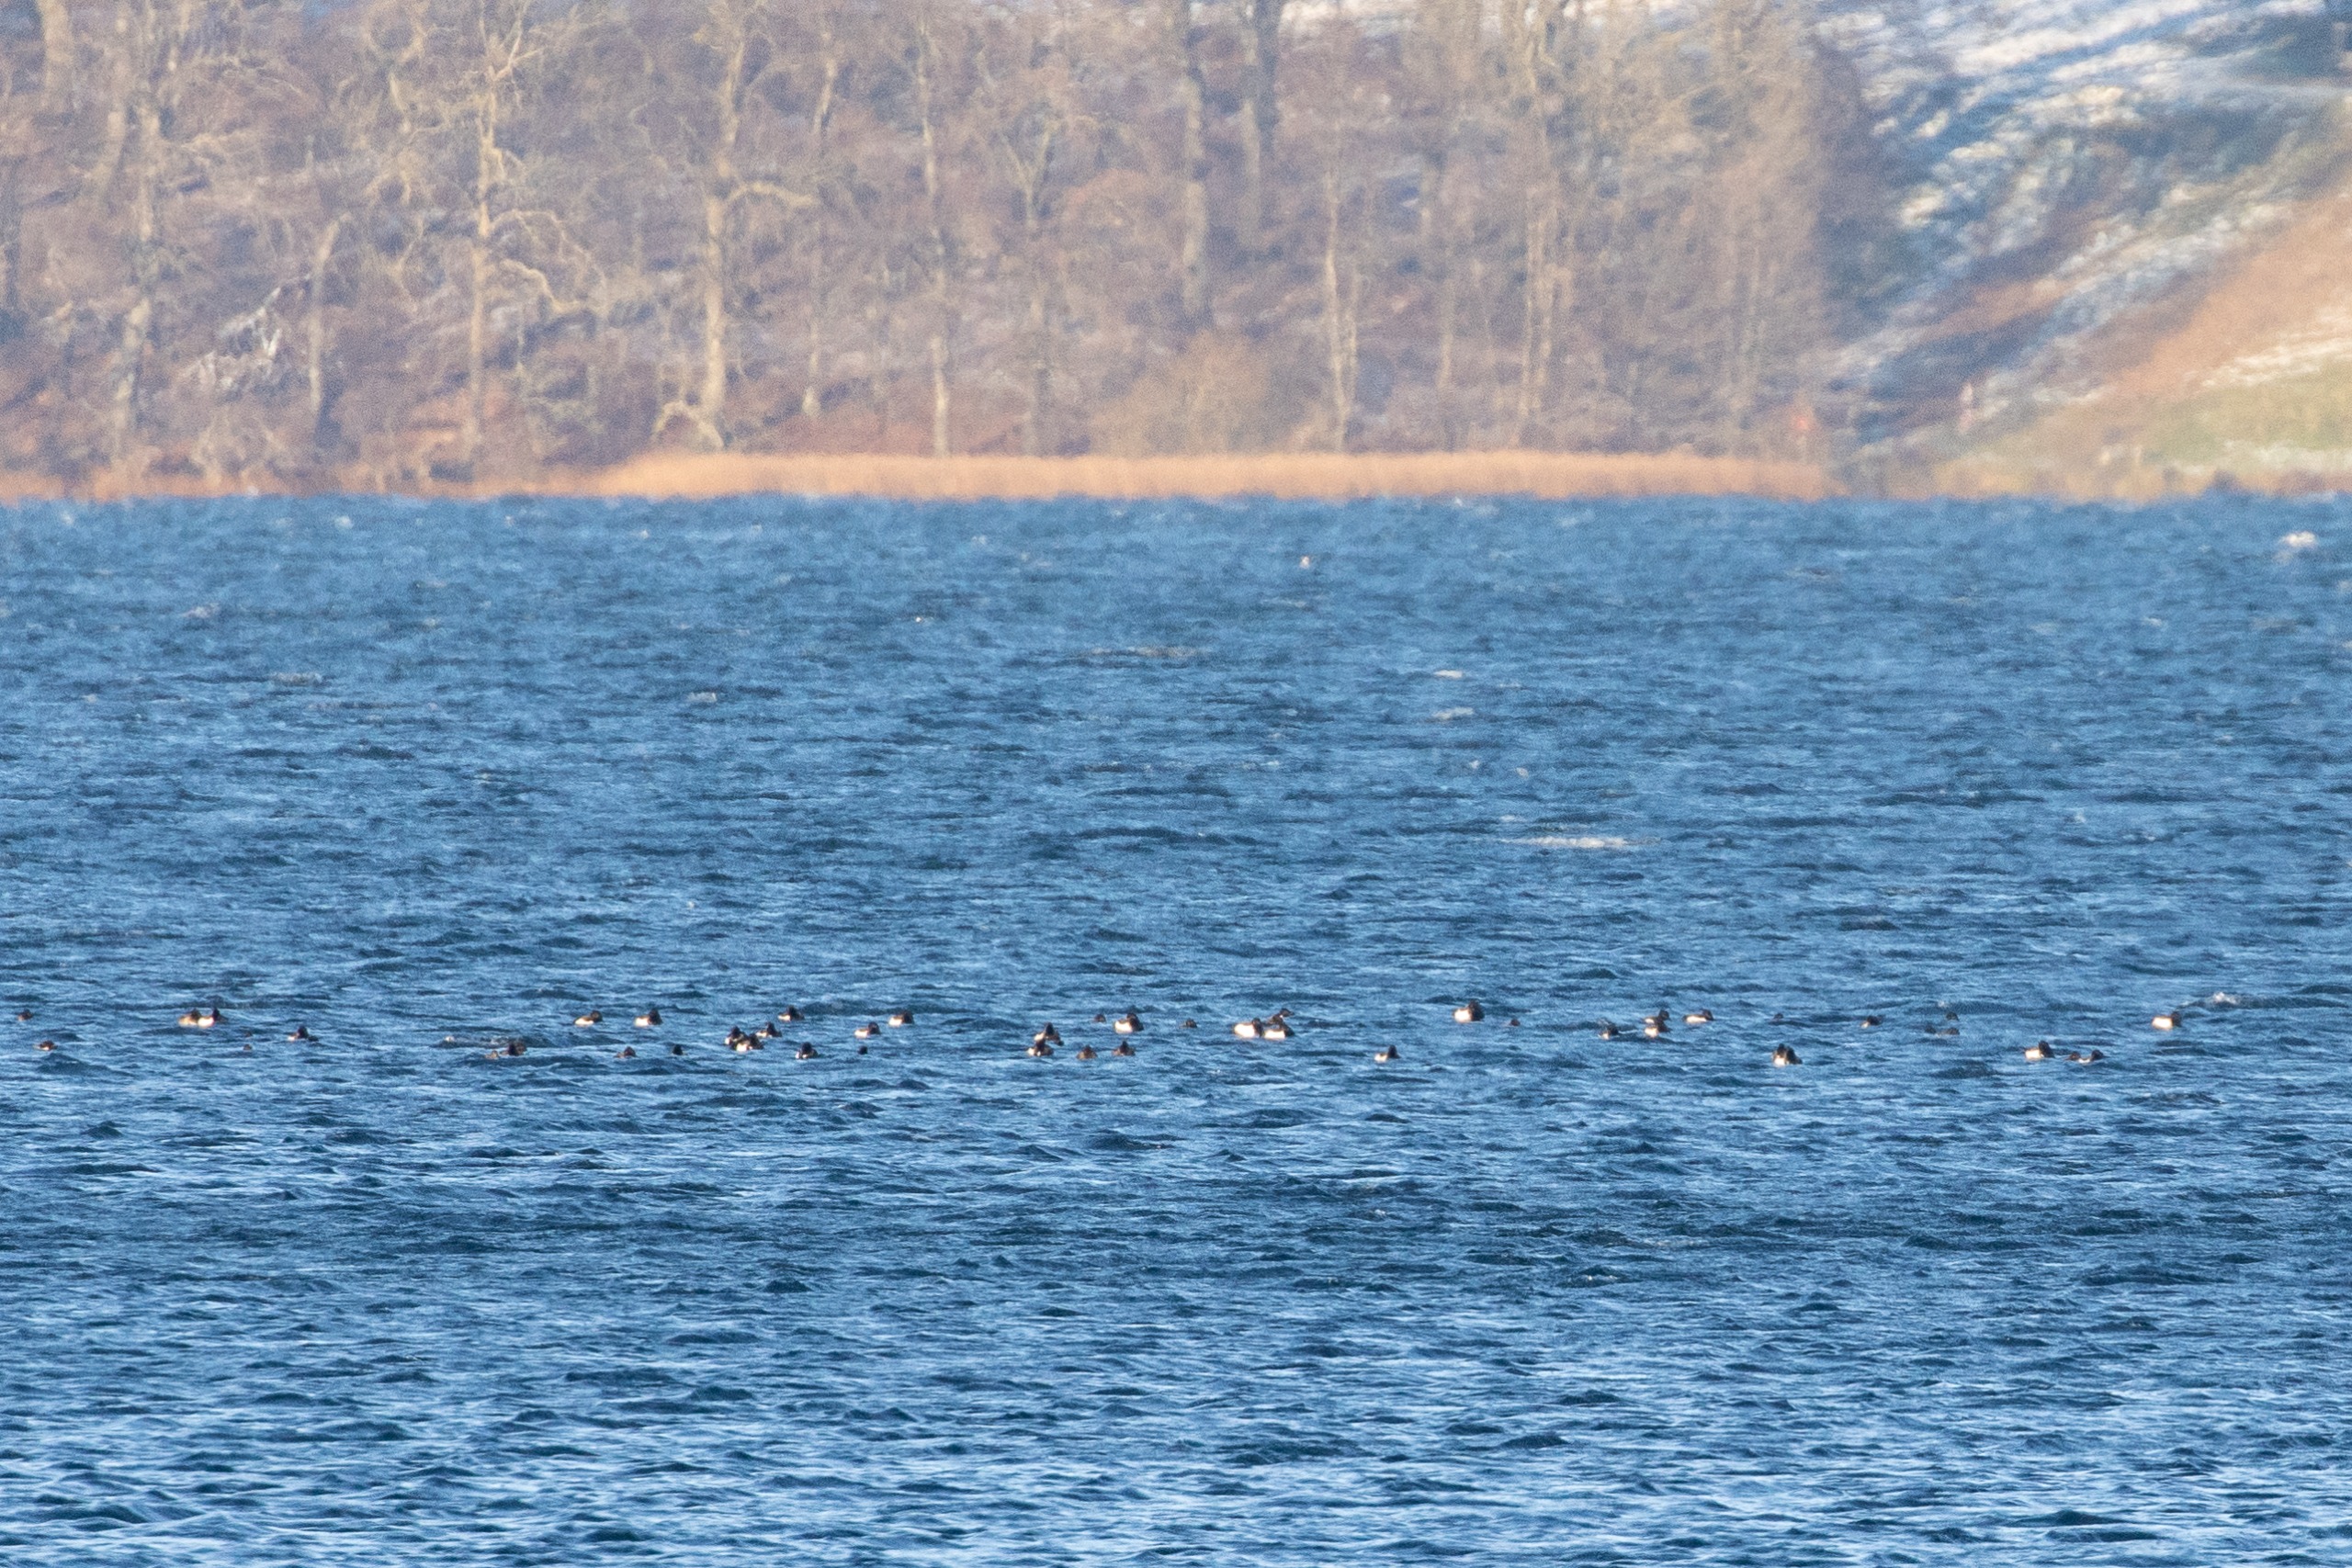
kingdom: Animalia
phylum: Chordata
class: Aves
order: Anseriformes
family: Anatidae
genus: Aythya
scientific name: Aythya fuligula
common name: Troldand
